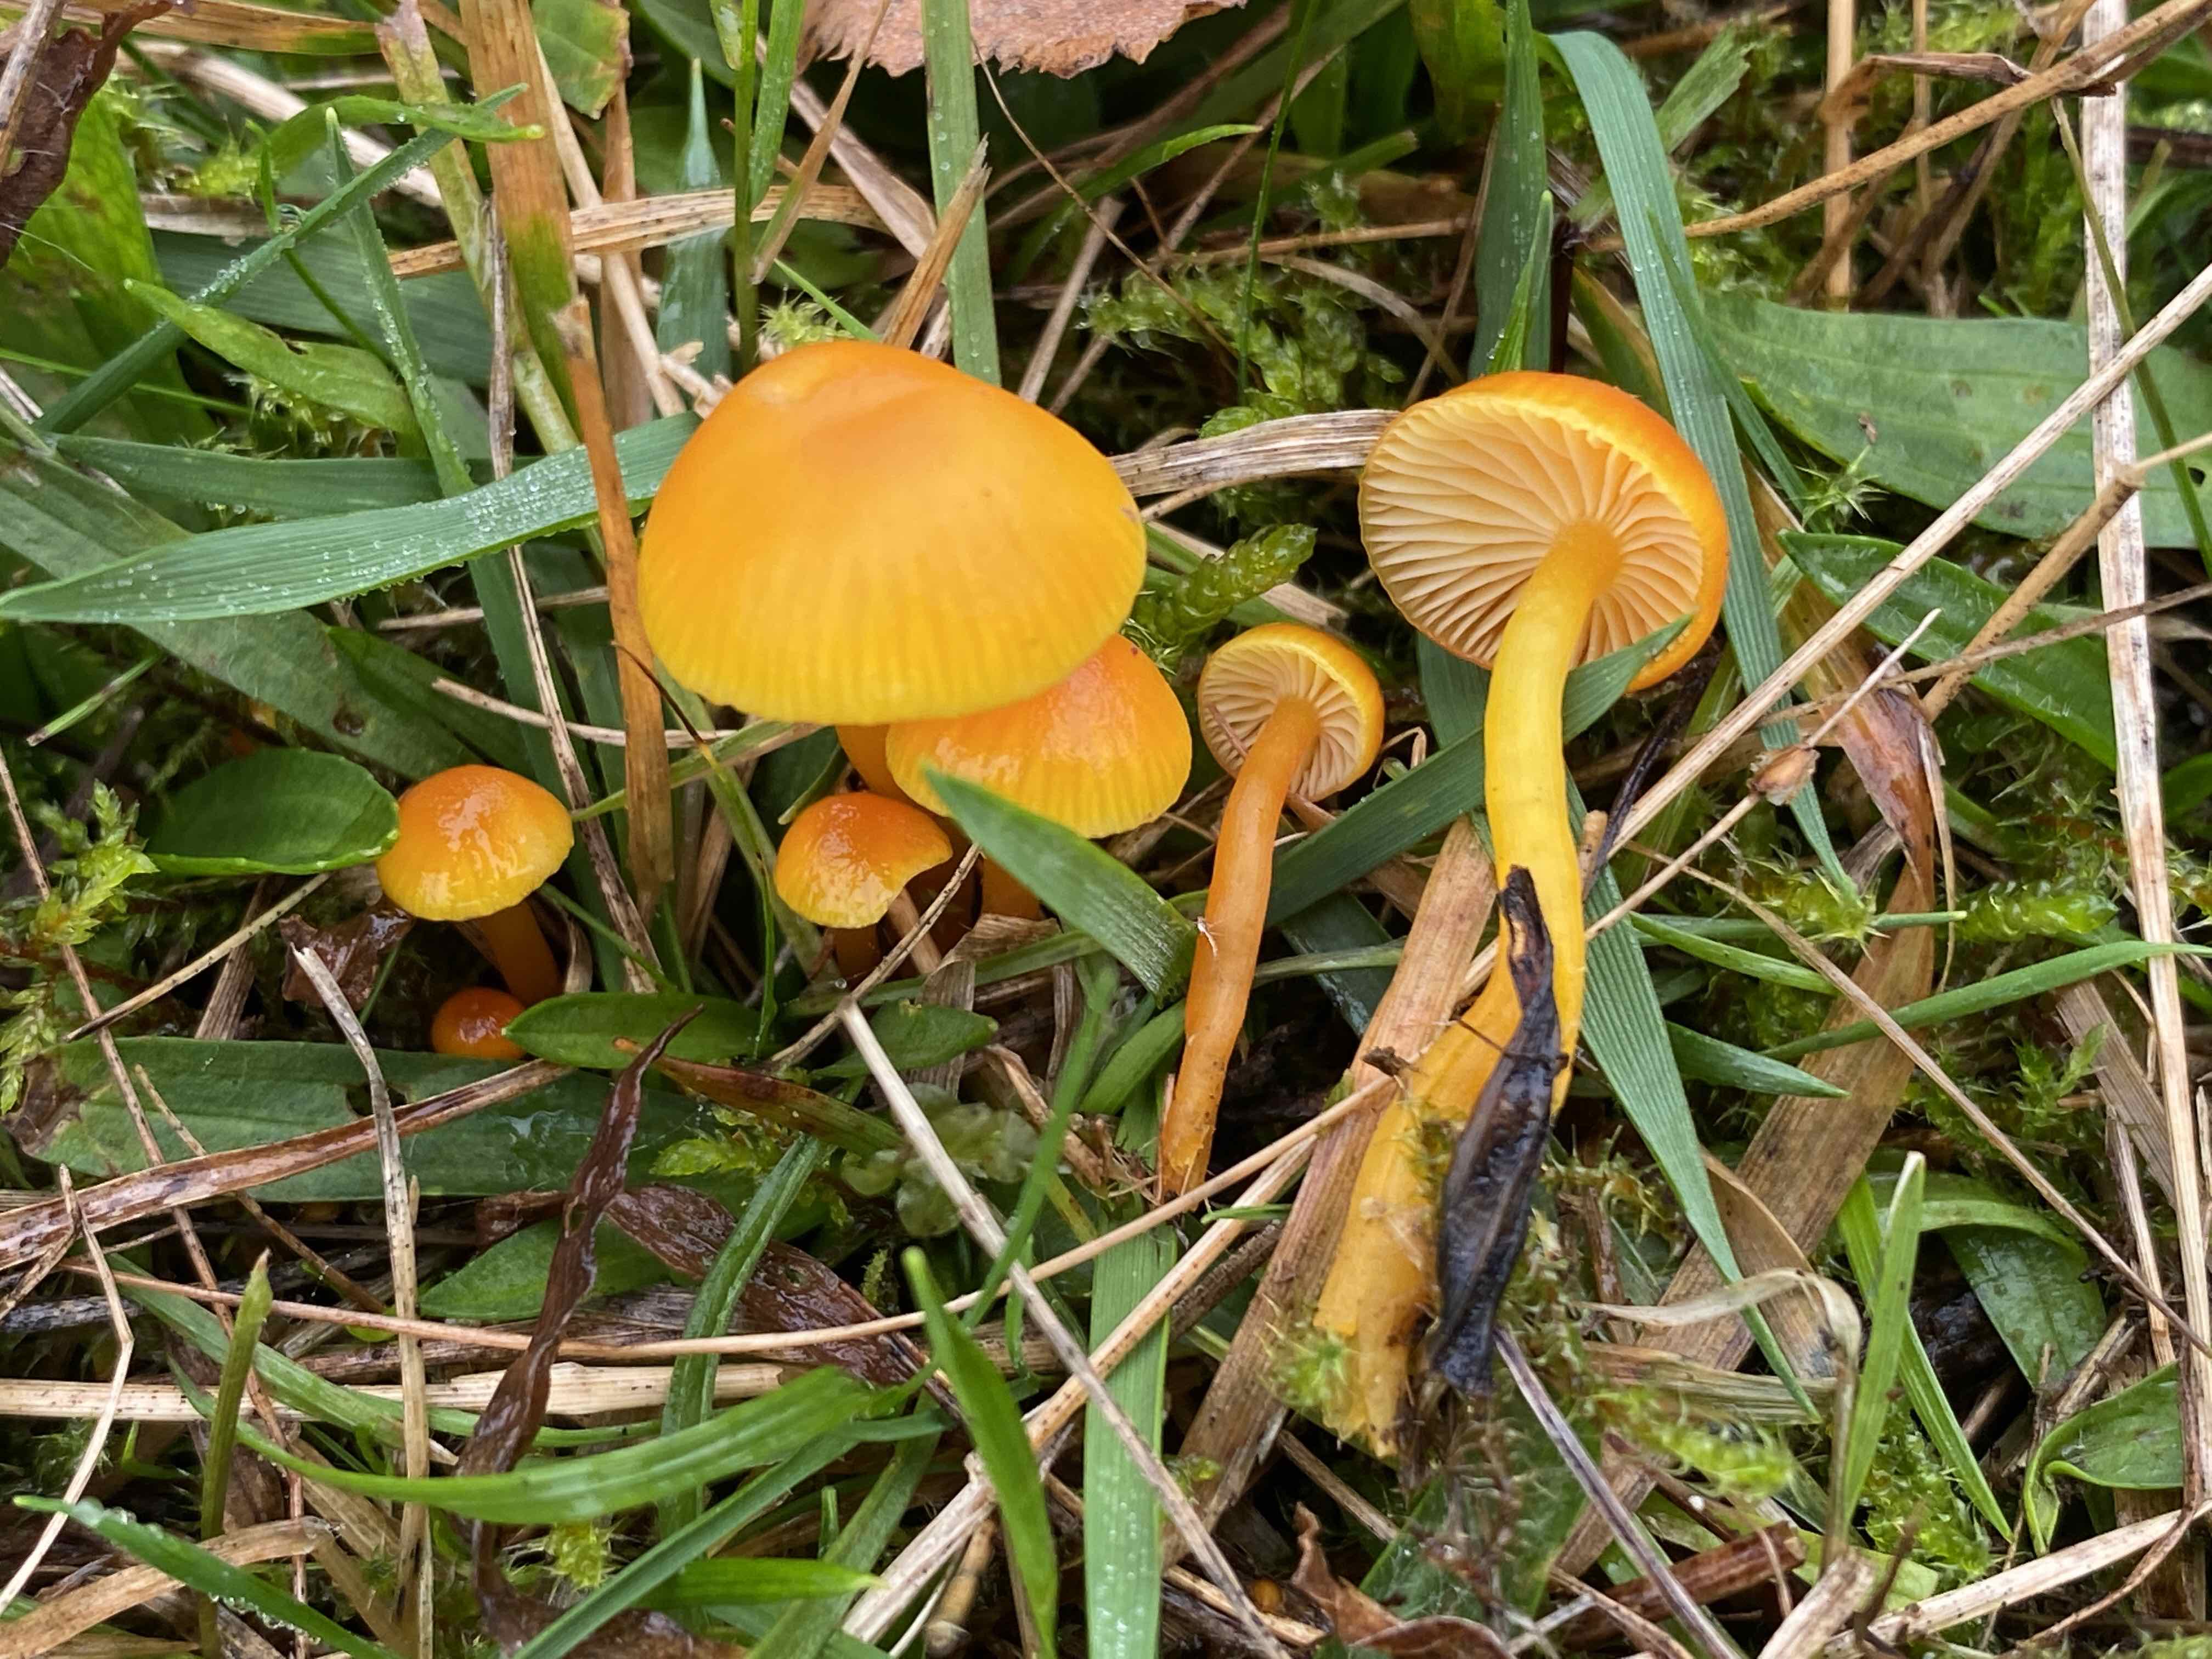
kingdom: Fungi
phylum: Basidiomycota
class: Agaricomycetes
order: Agaricales
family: Hygrophoraceae
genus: Hygrocybe
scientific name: Hygrocybe ceracea
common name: voksgul vokshat
